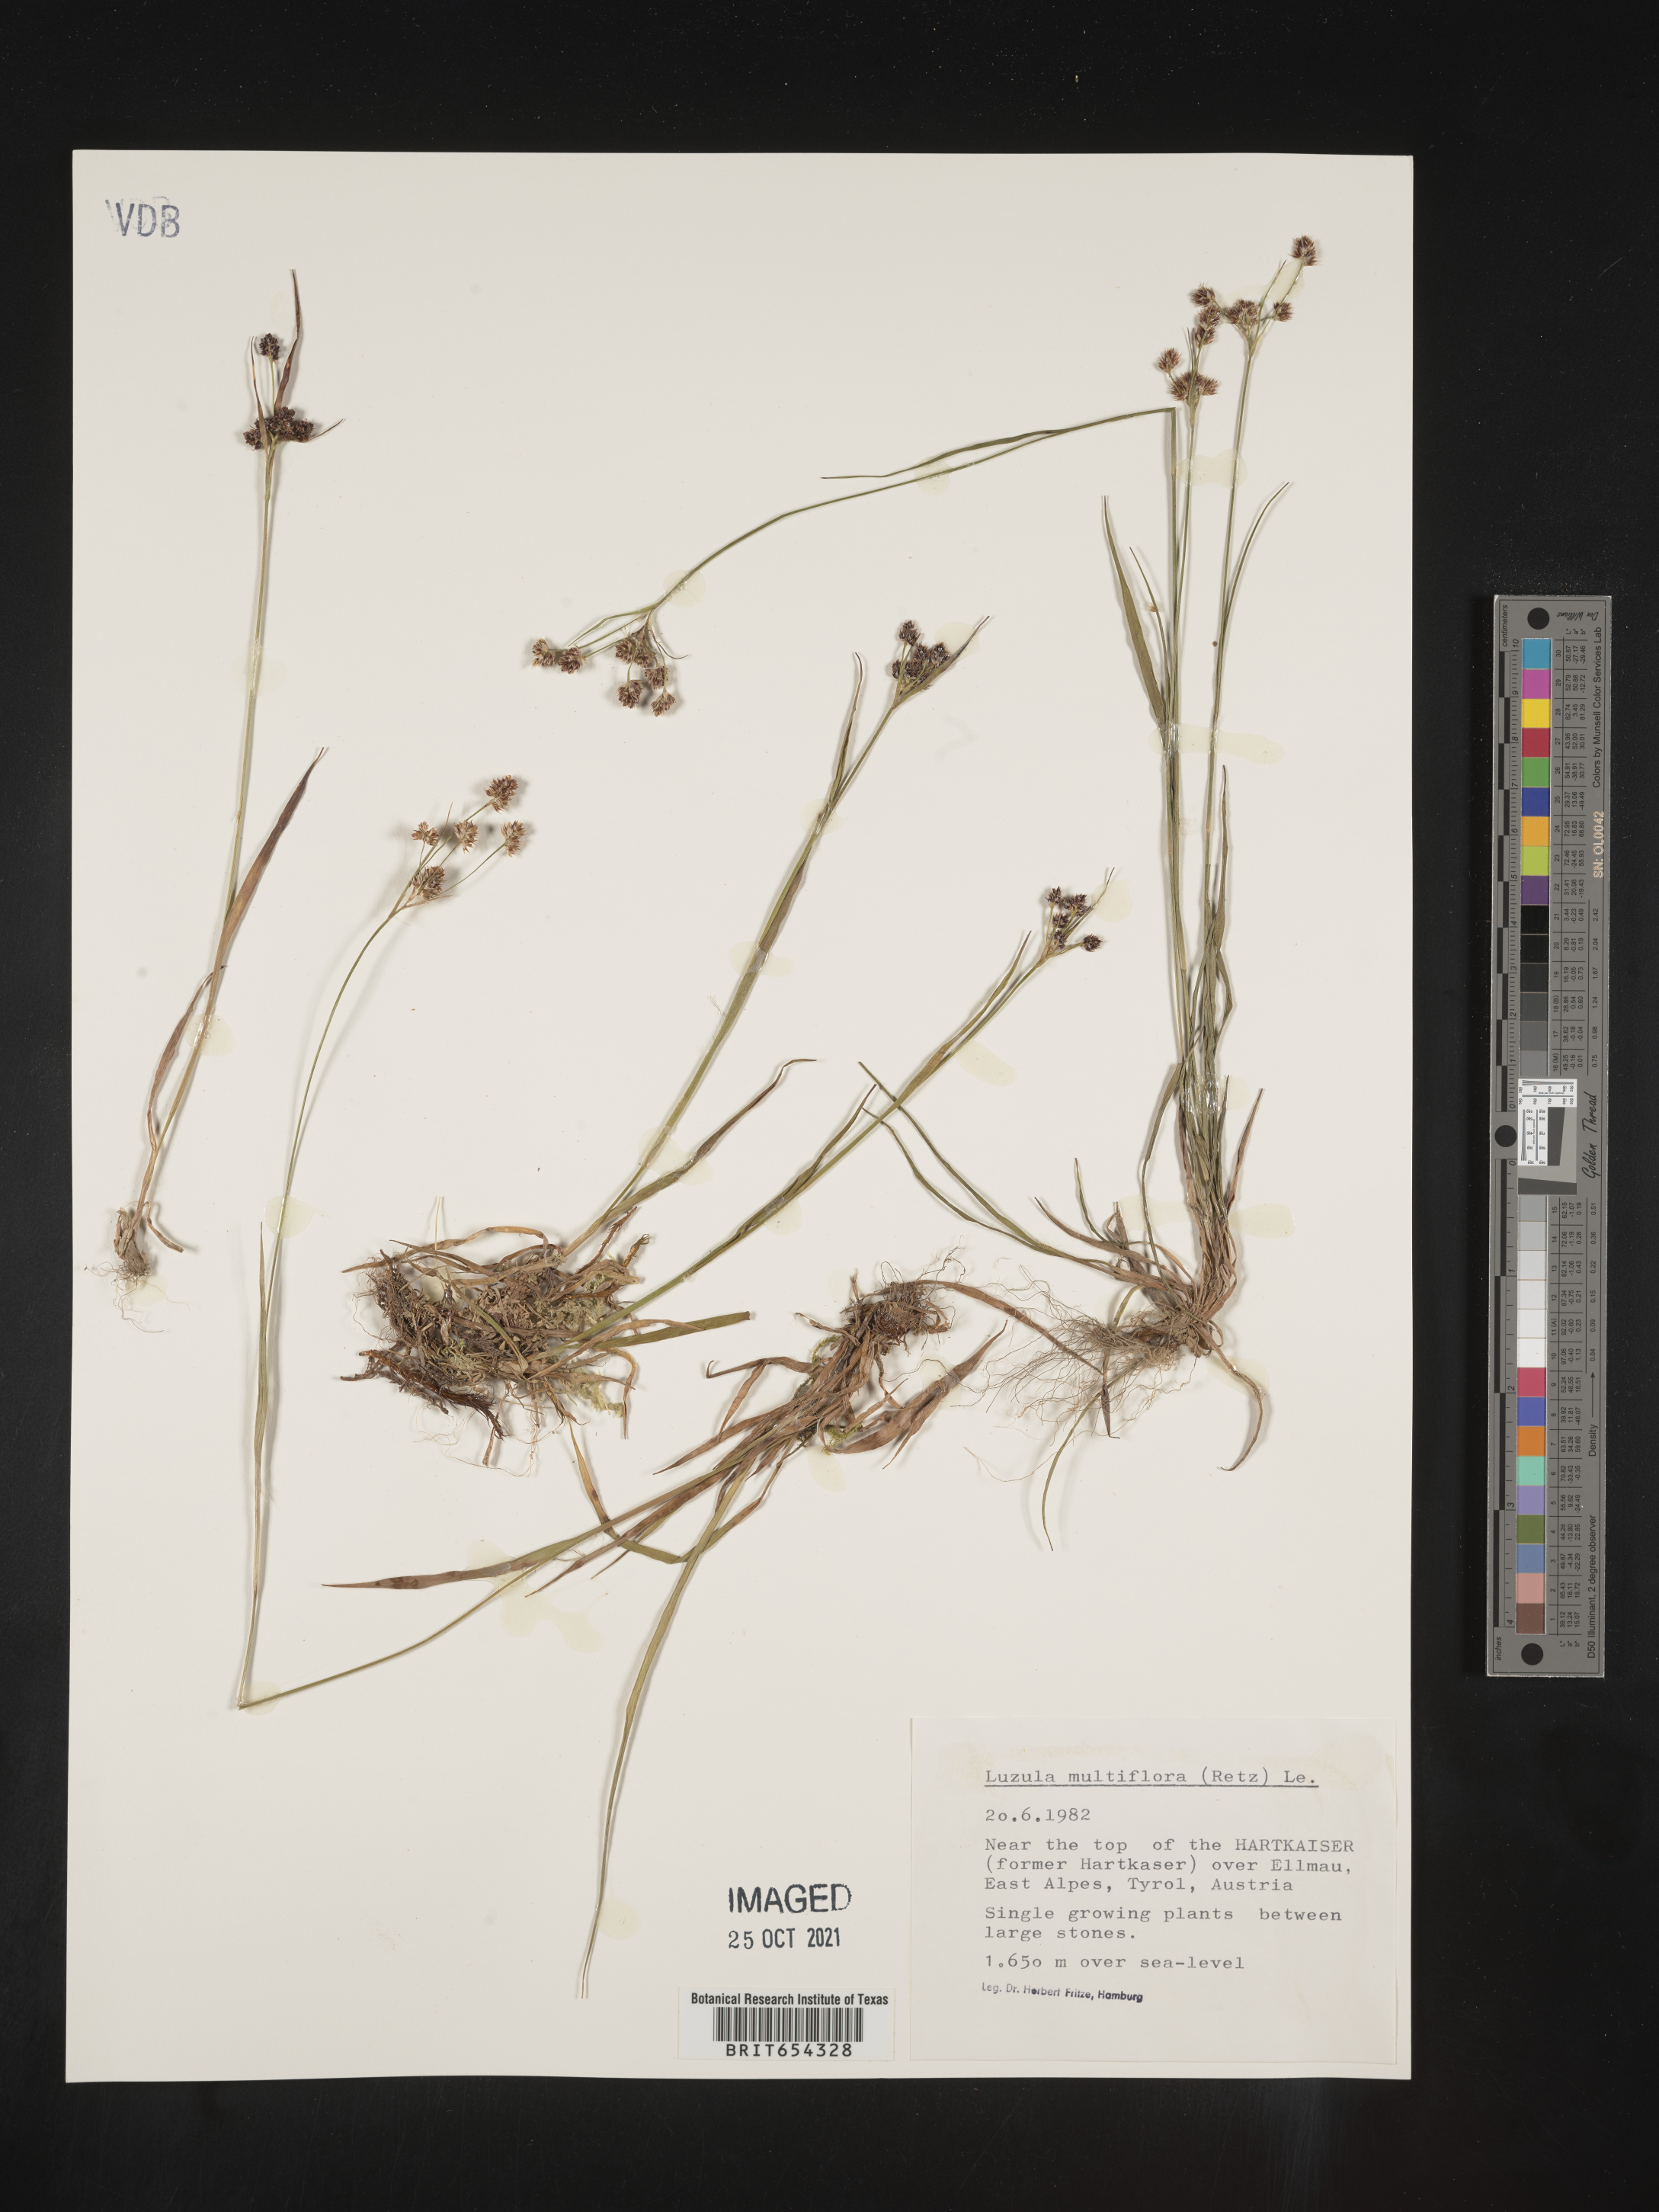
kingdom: Plantae
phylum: Tracheophyta
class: Liliopsida
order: Poales
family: Juncaceae
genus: Luzula
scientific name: Luzula
